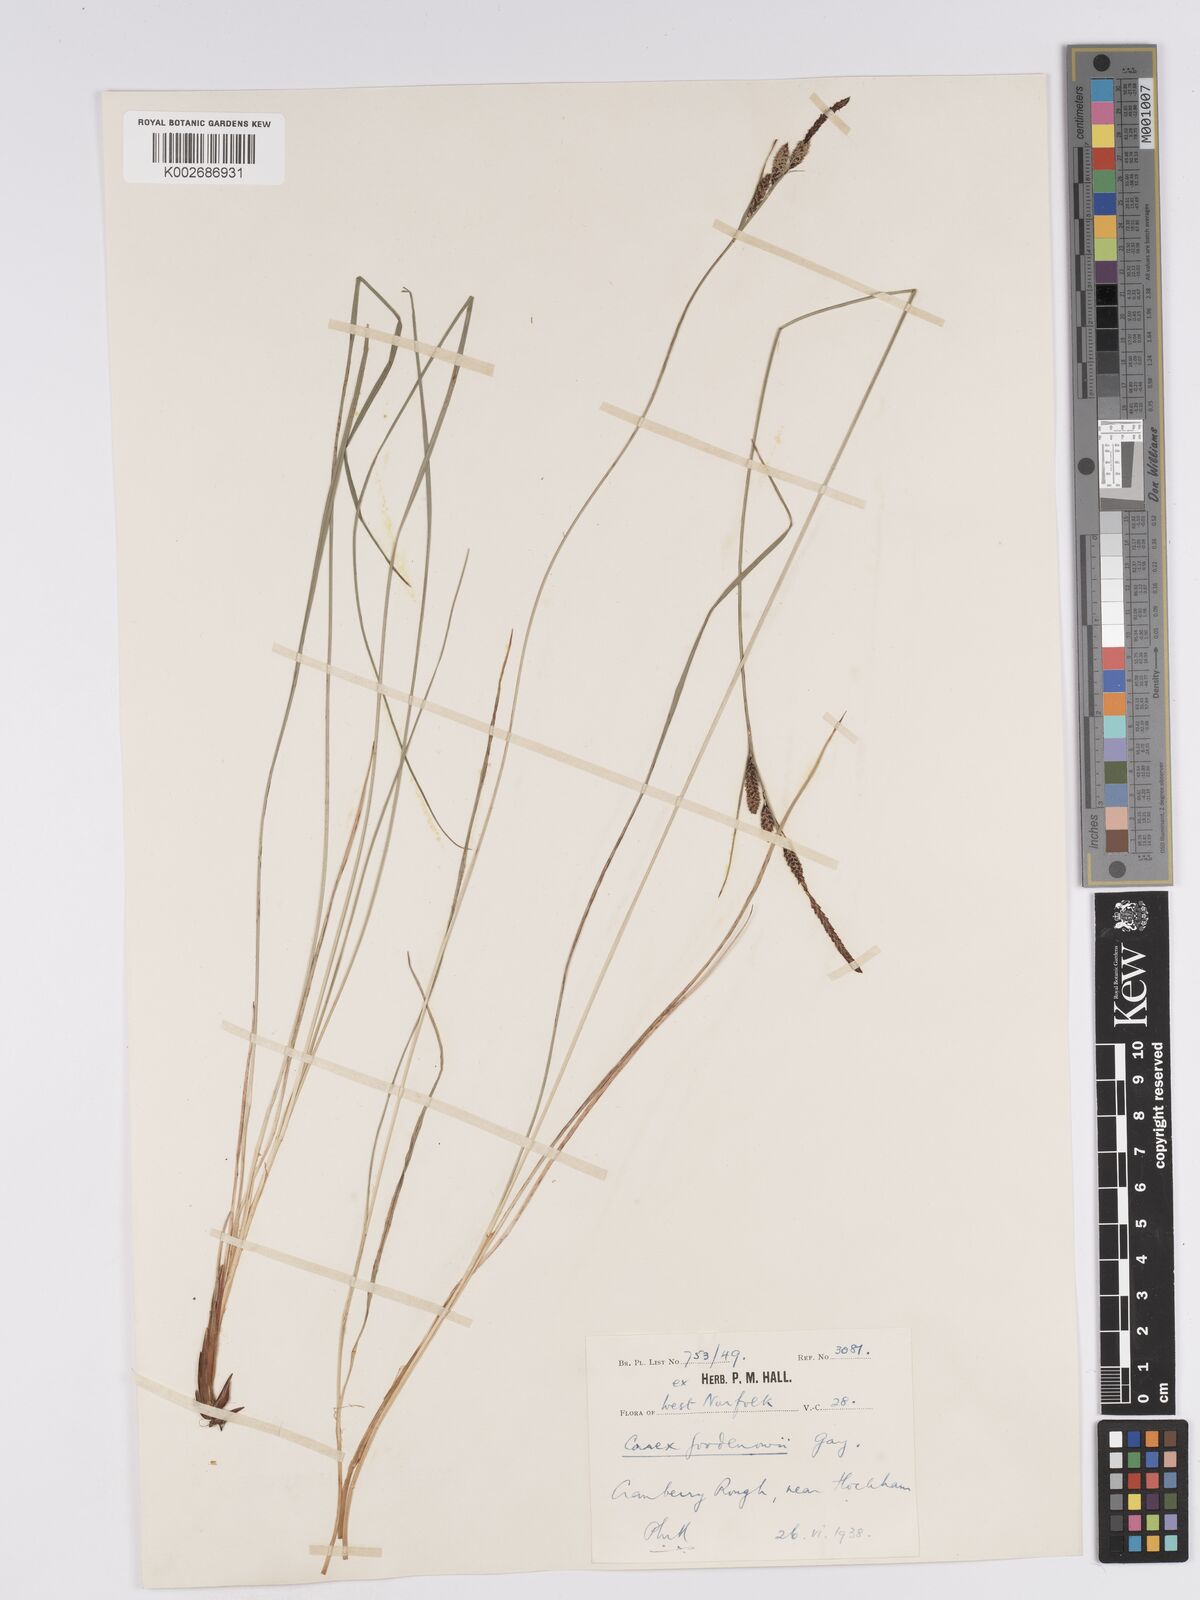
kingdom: Plantae
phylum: Tracheophyta
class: Liliopsida
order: Poales
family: Cyperaceae
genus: Carex
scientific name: Carex nigra
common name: Common sedge
